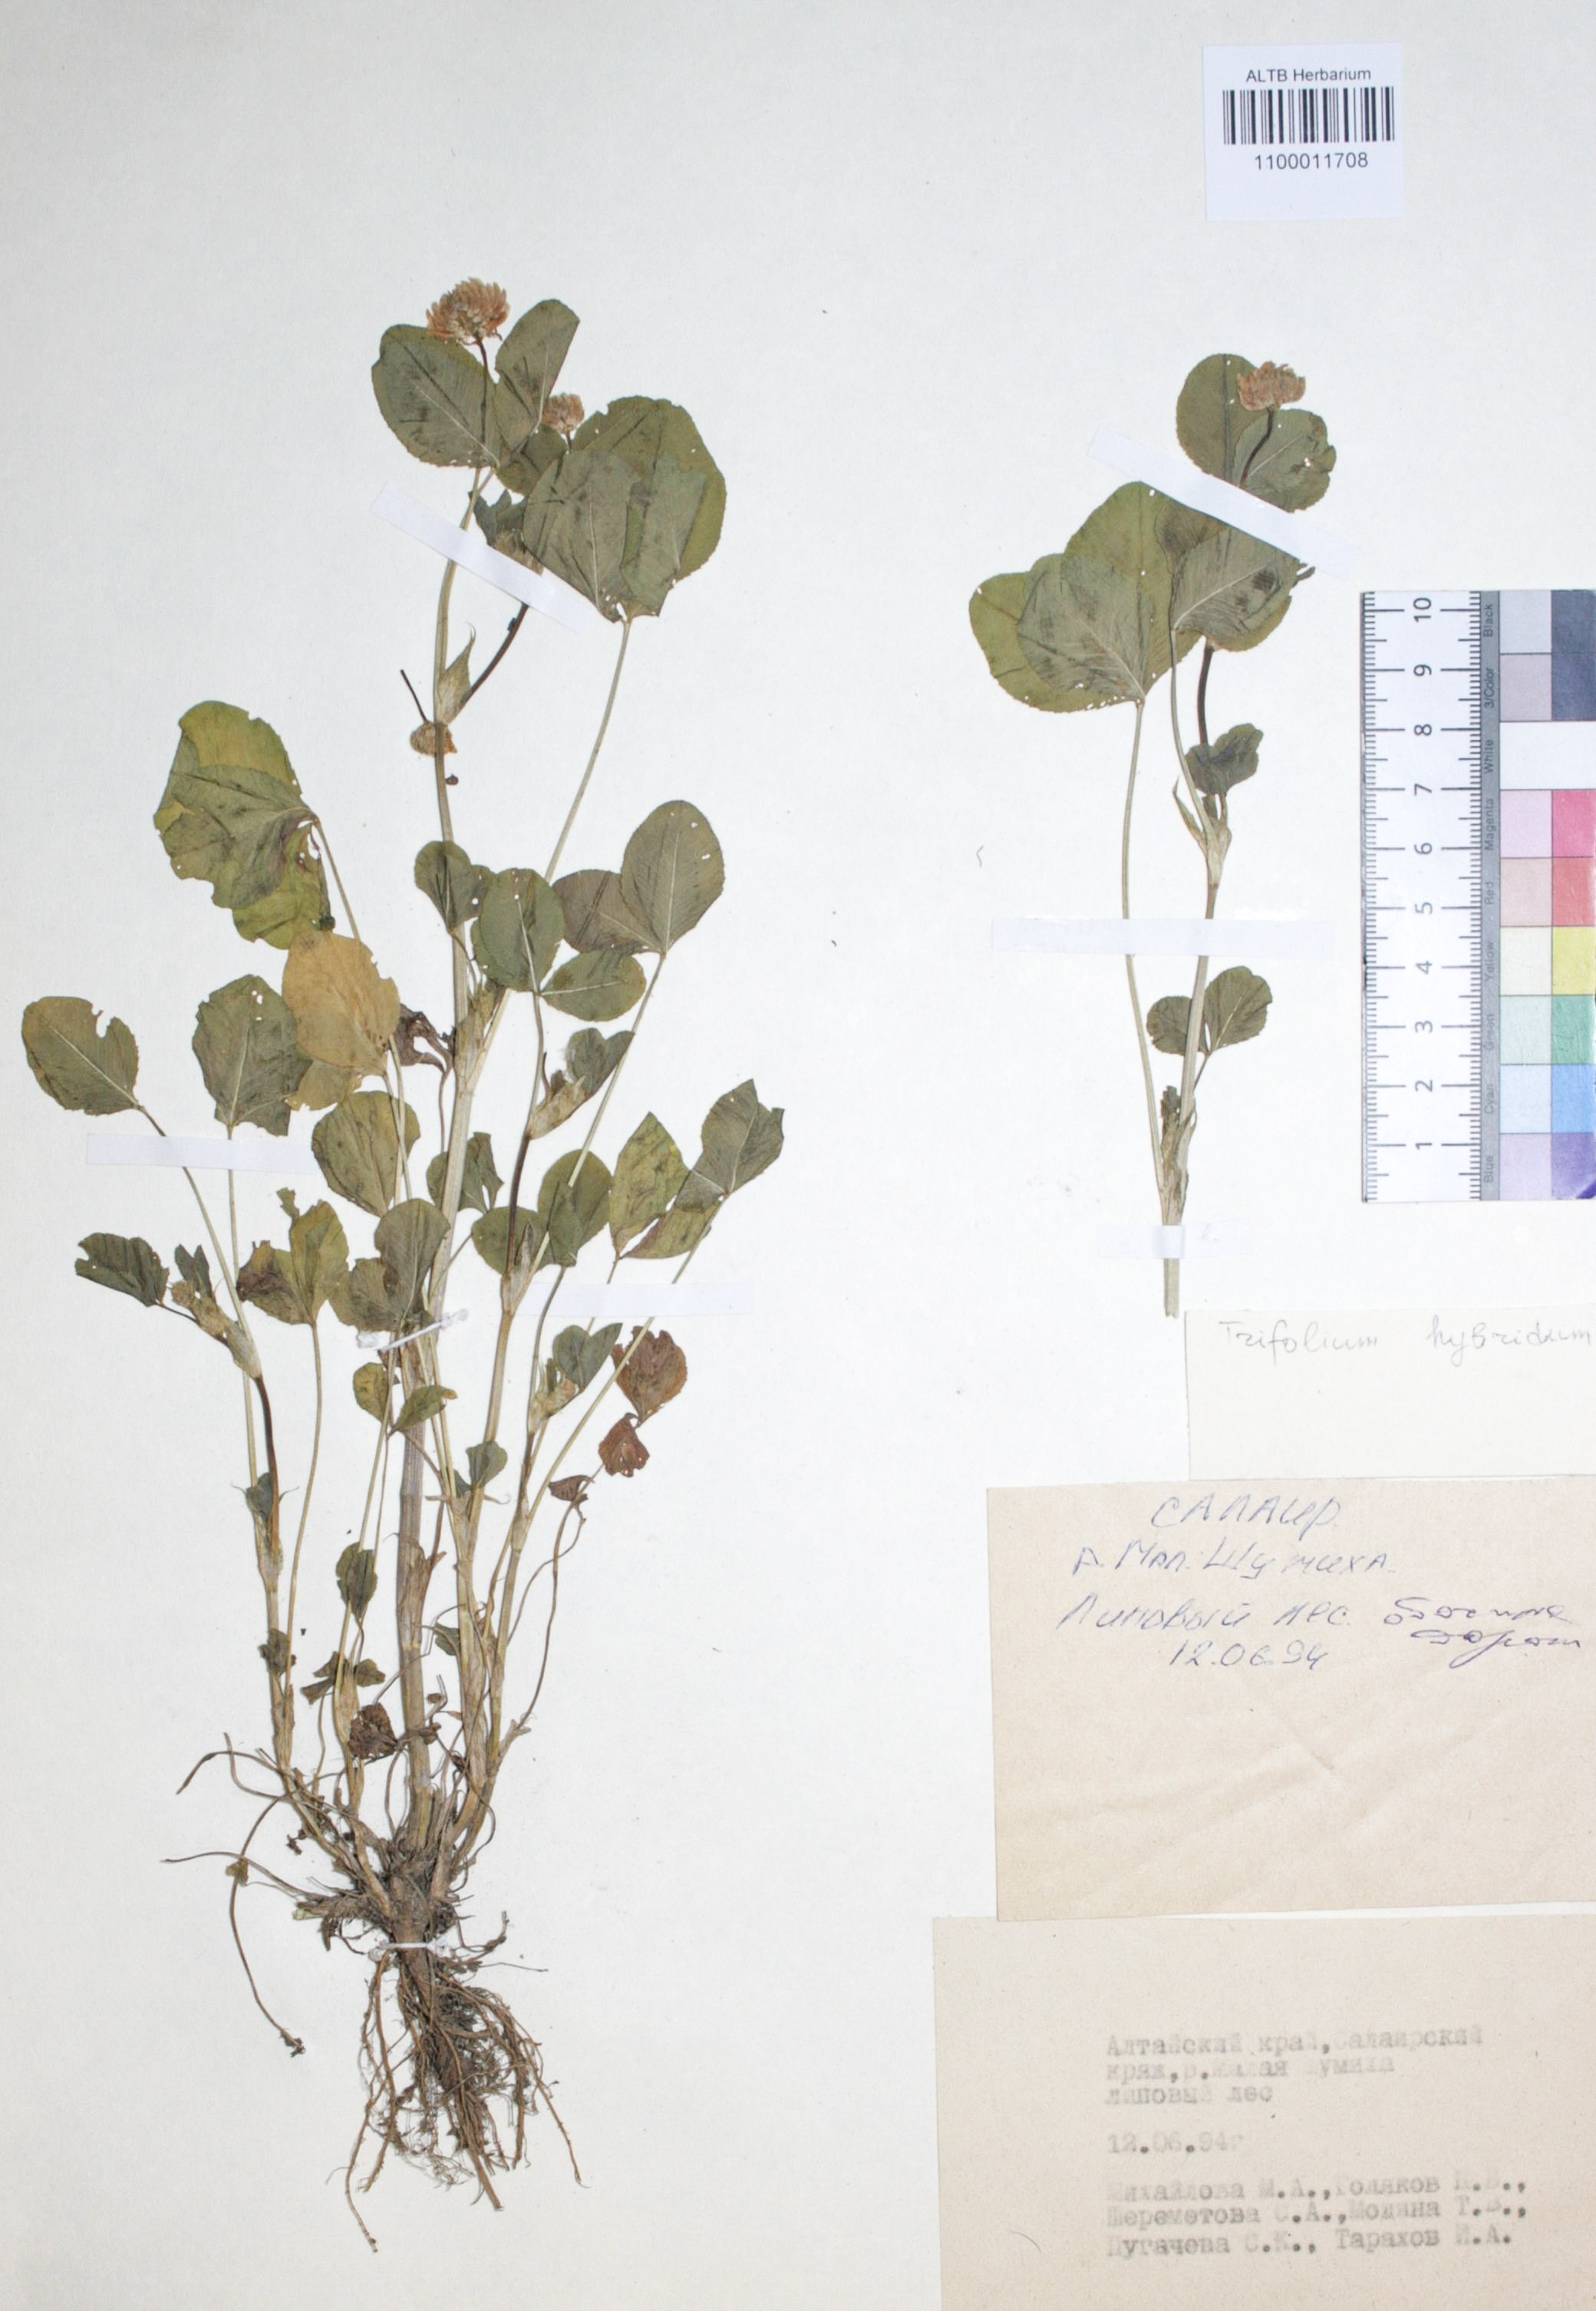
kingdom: Plantae
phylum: Tracheophyta
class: Magnoliopsida
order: Fabales
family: Fabaceae
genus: Trifolium
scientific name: Trifolium hybridum
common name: Alsike clover
